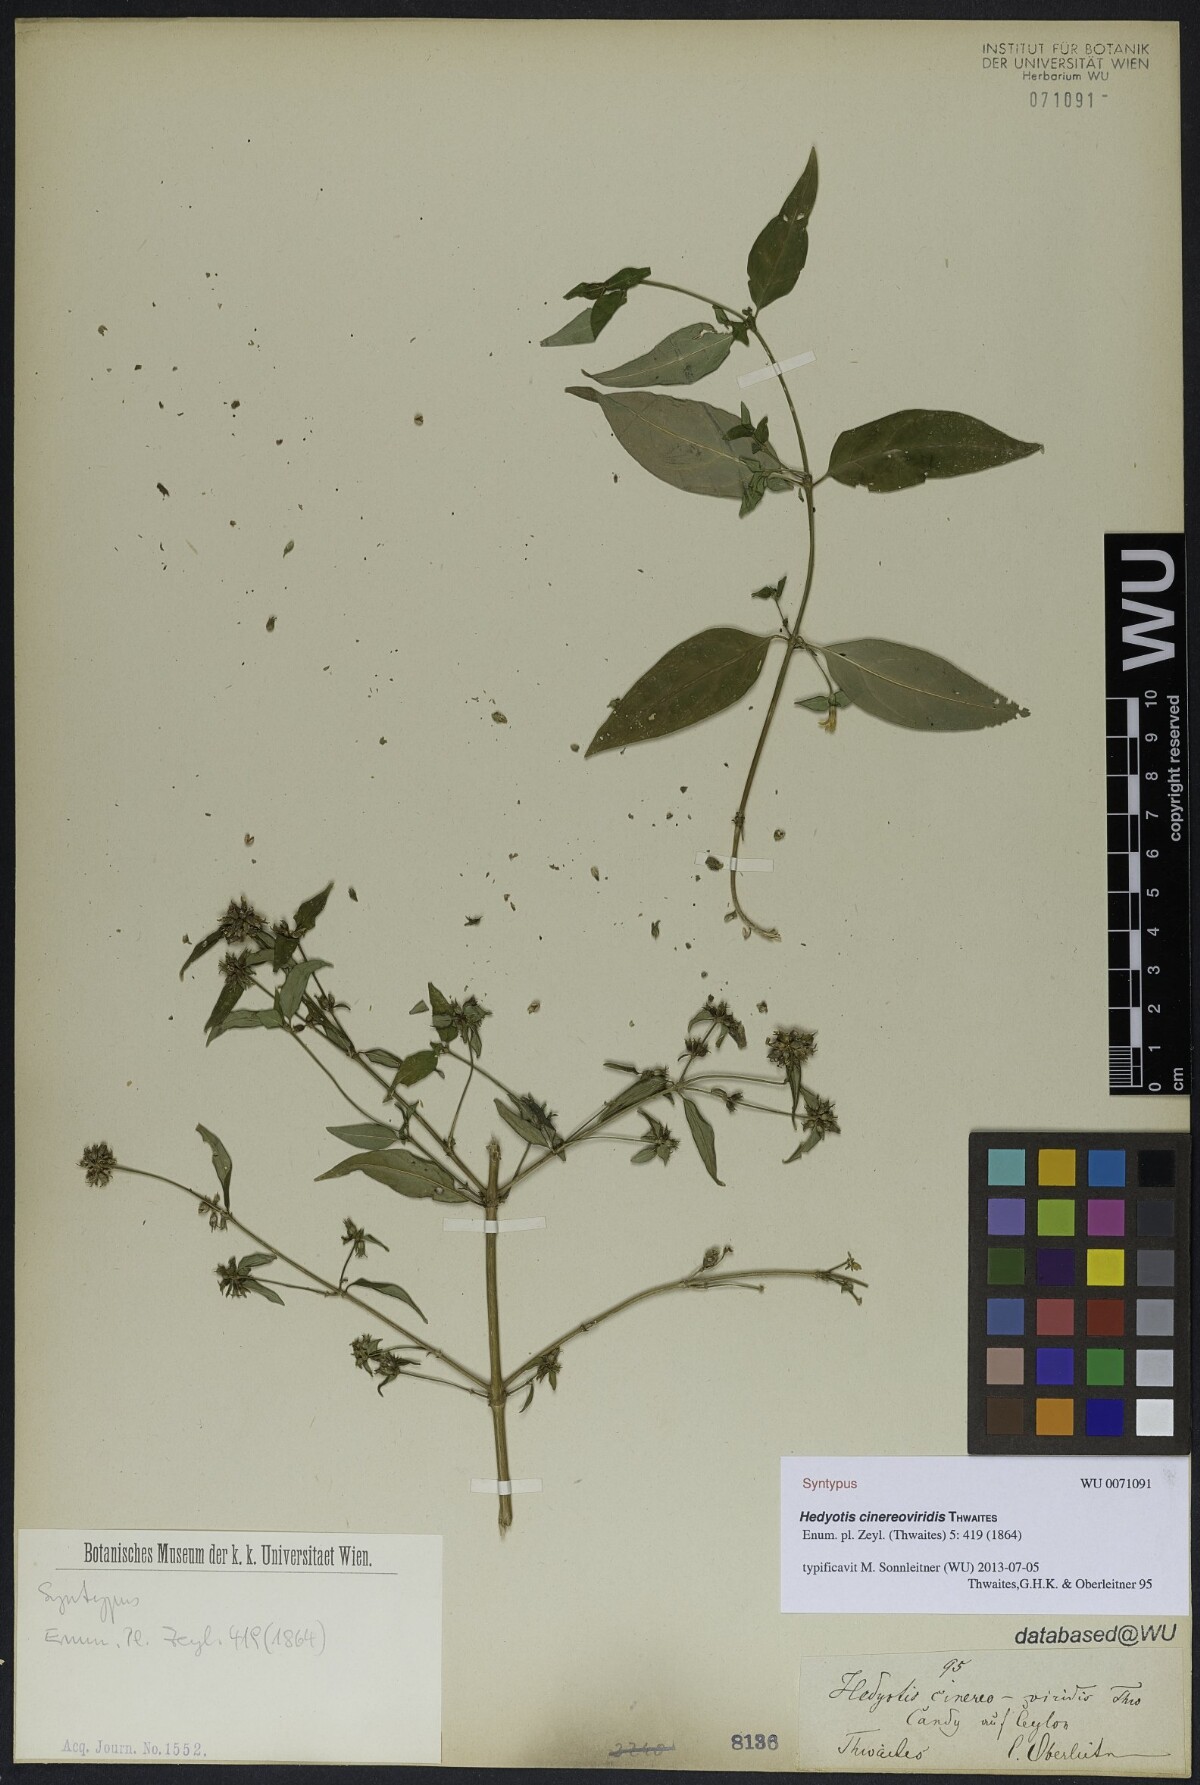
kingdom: Plantae
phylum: Tracheophyta
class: Magnoliopsida
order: Gentianales
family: Rubiaceae
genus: Hedyotis
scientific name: Hedyotis cinereoviridis
